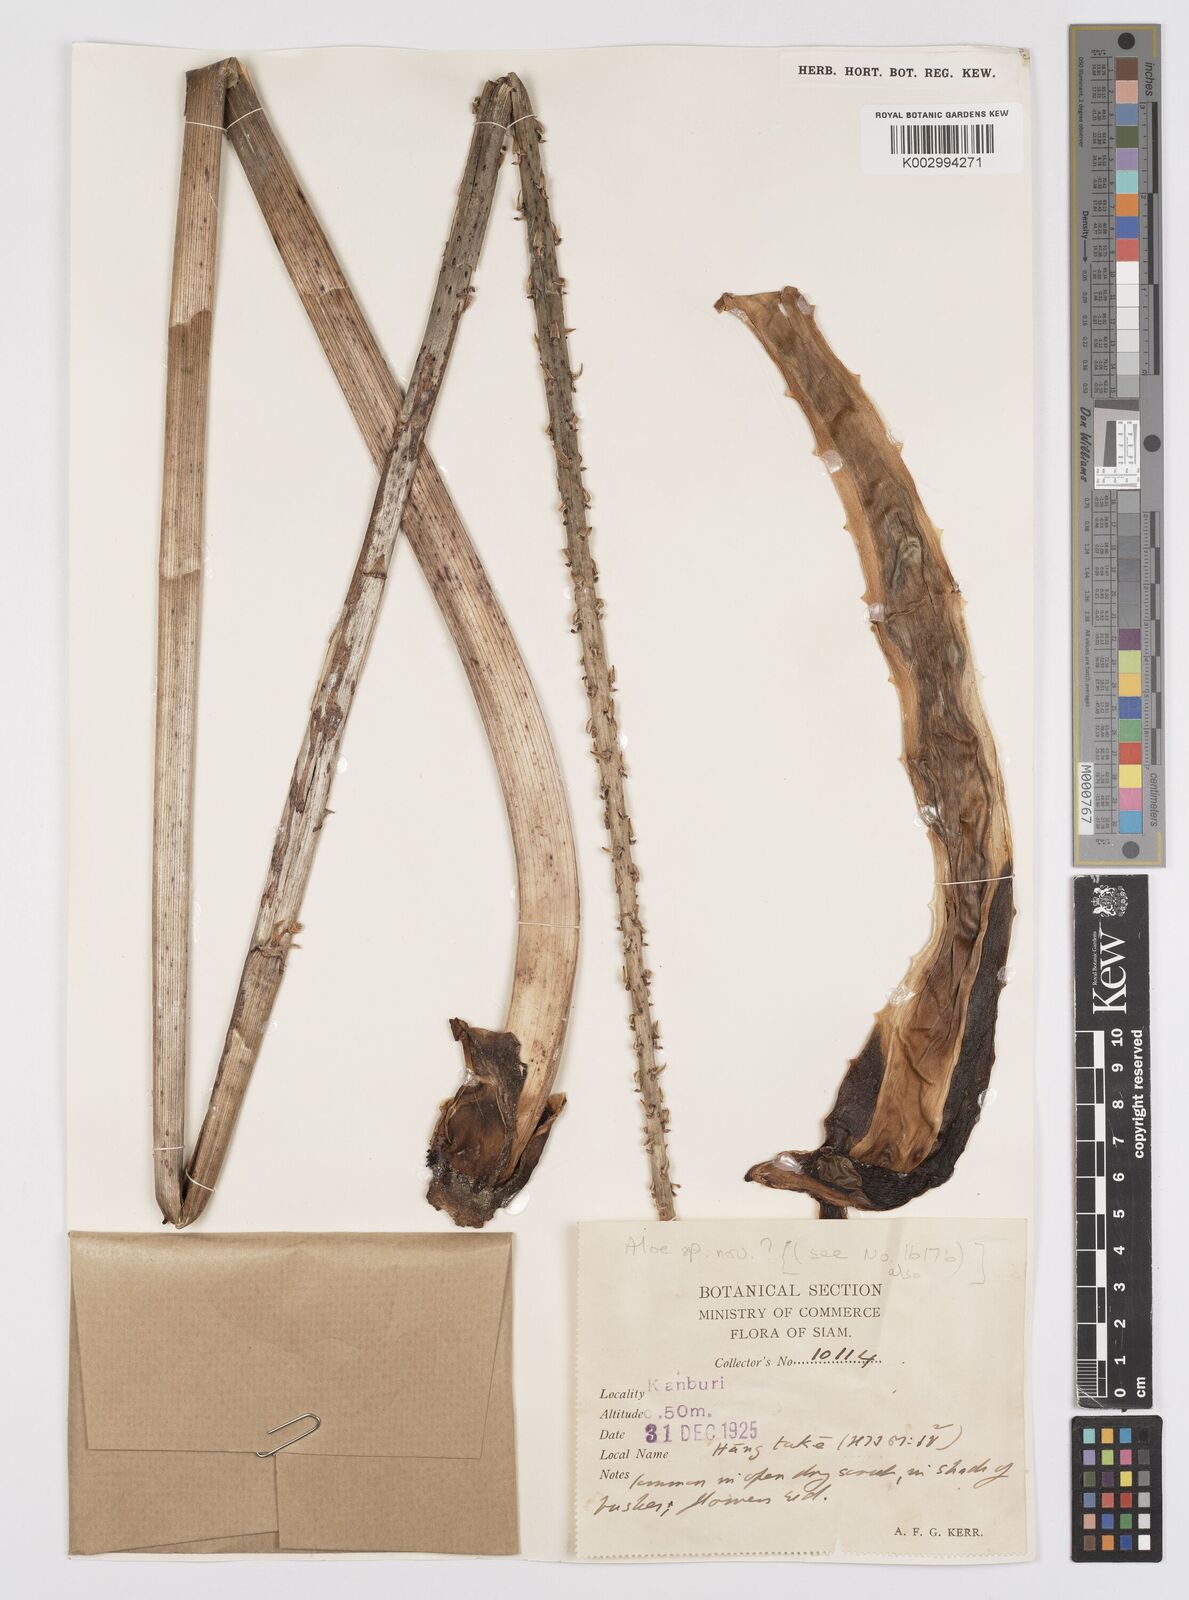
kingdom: Plantae
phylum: Tracheophyta
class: Liliopsida
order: Asparagales
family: Asphodelaceae
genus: Aloe
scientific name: Aloe
